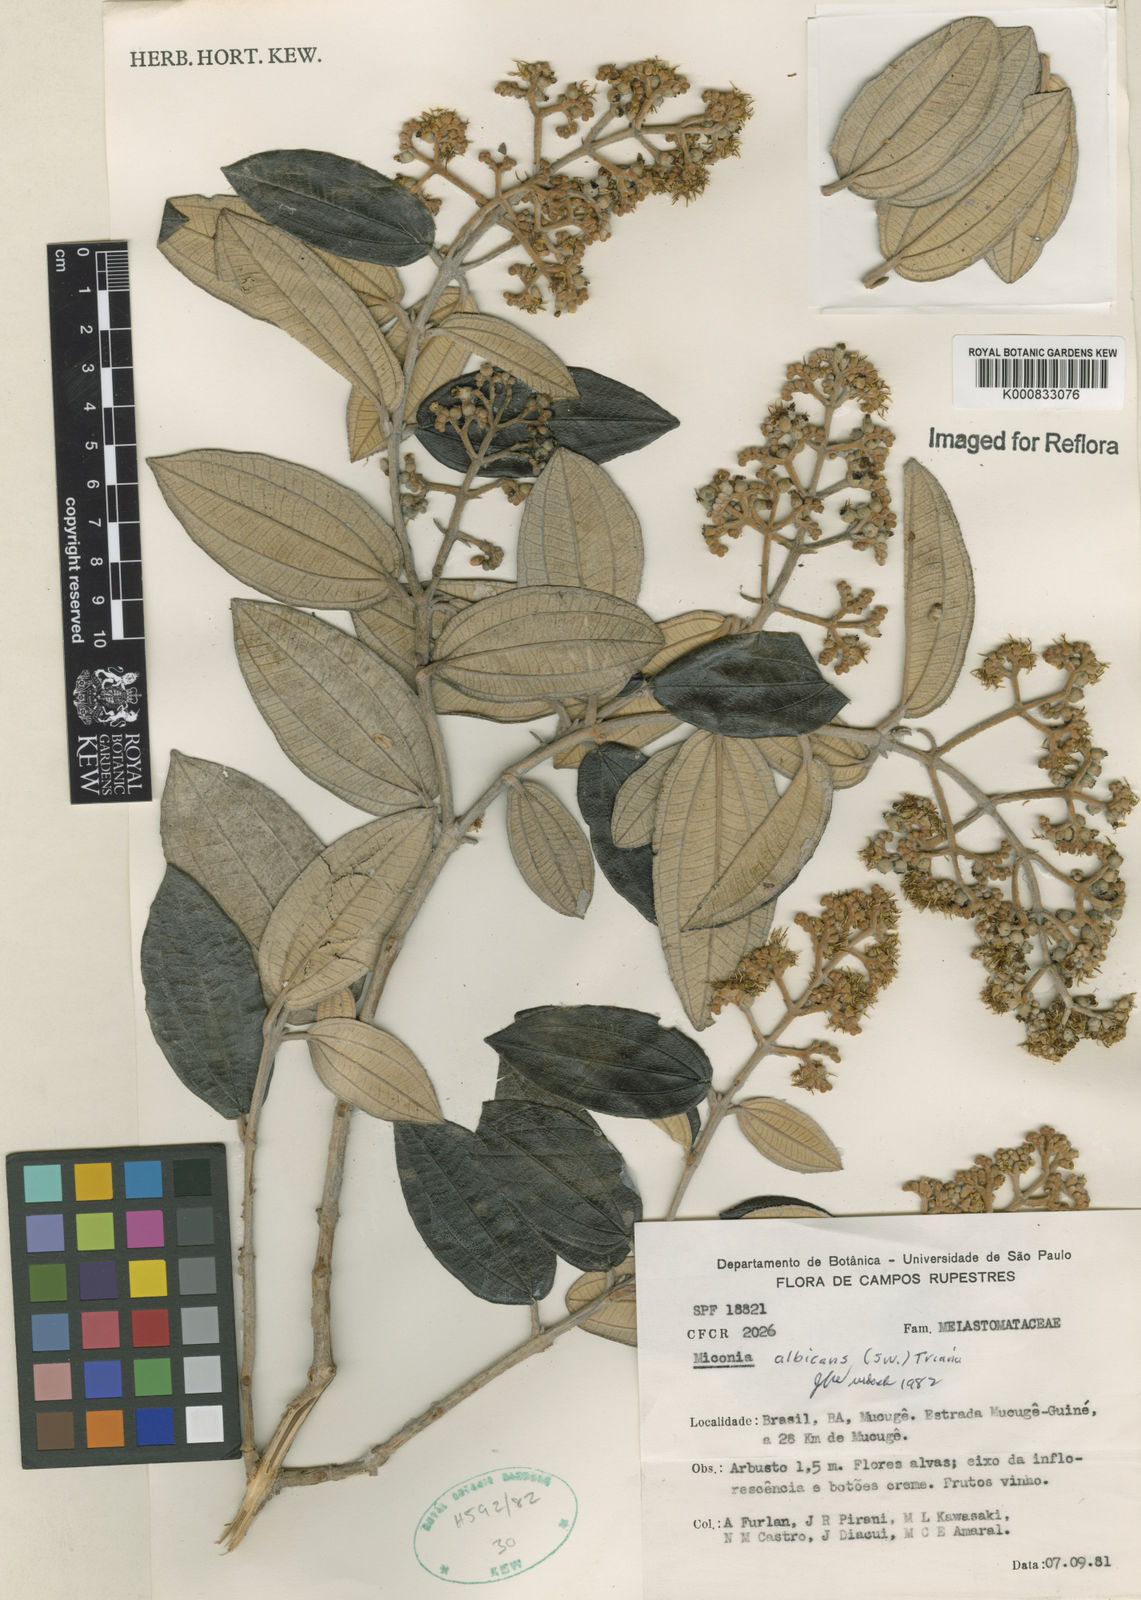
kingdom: Plantae
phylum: Tracheophyta
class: Magnoliopsida
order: Myrtales
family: Melastomataceae
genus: Miconia
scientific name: Miconia albicans
